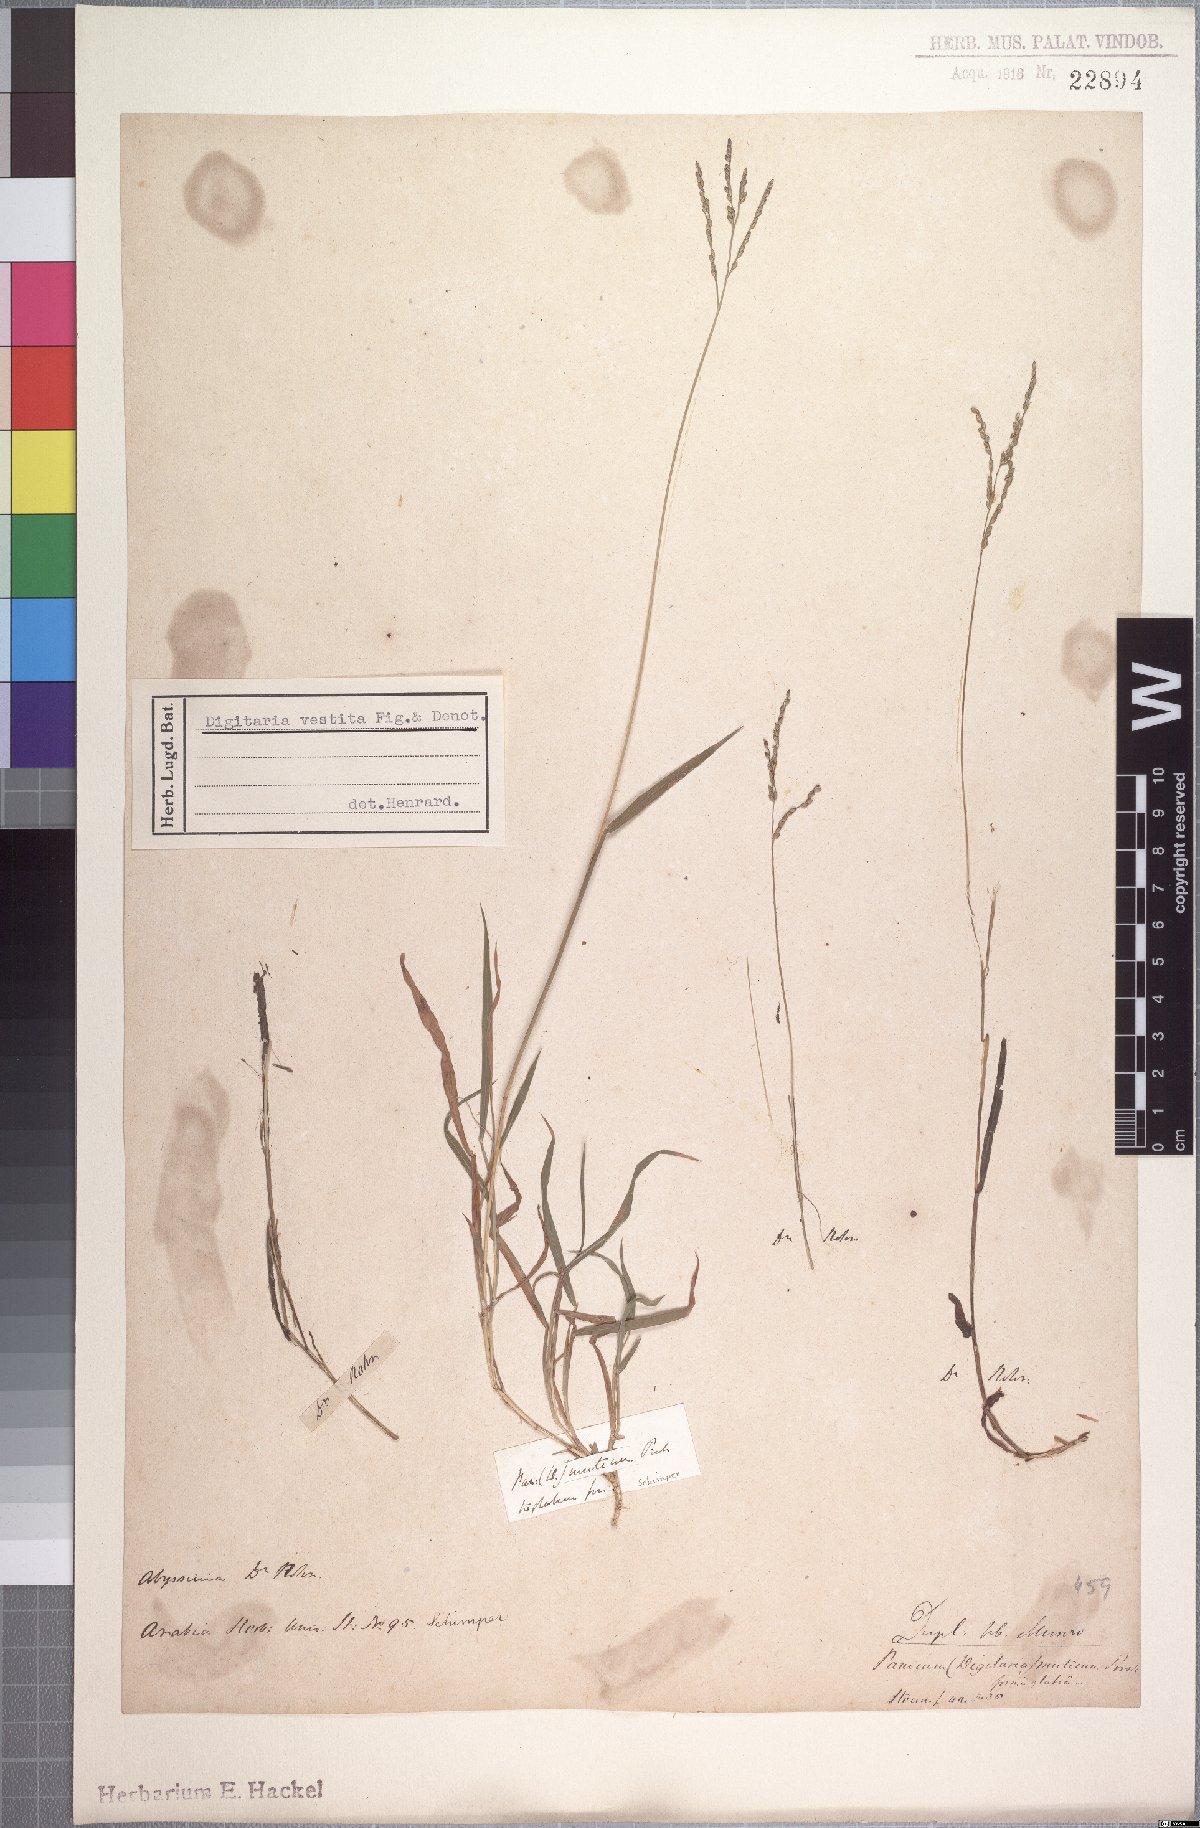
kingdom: Plantae
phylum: Tracheophyta
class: Liliopsida
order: Poales
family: Poaceae
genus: Digitaria
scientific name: Digitaria abyssinica
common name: African couchgrass
